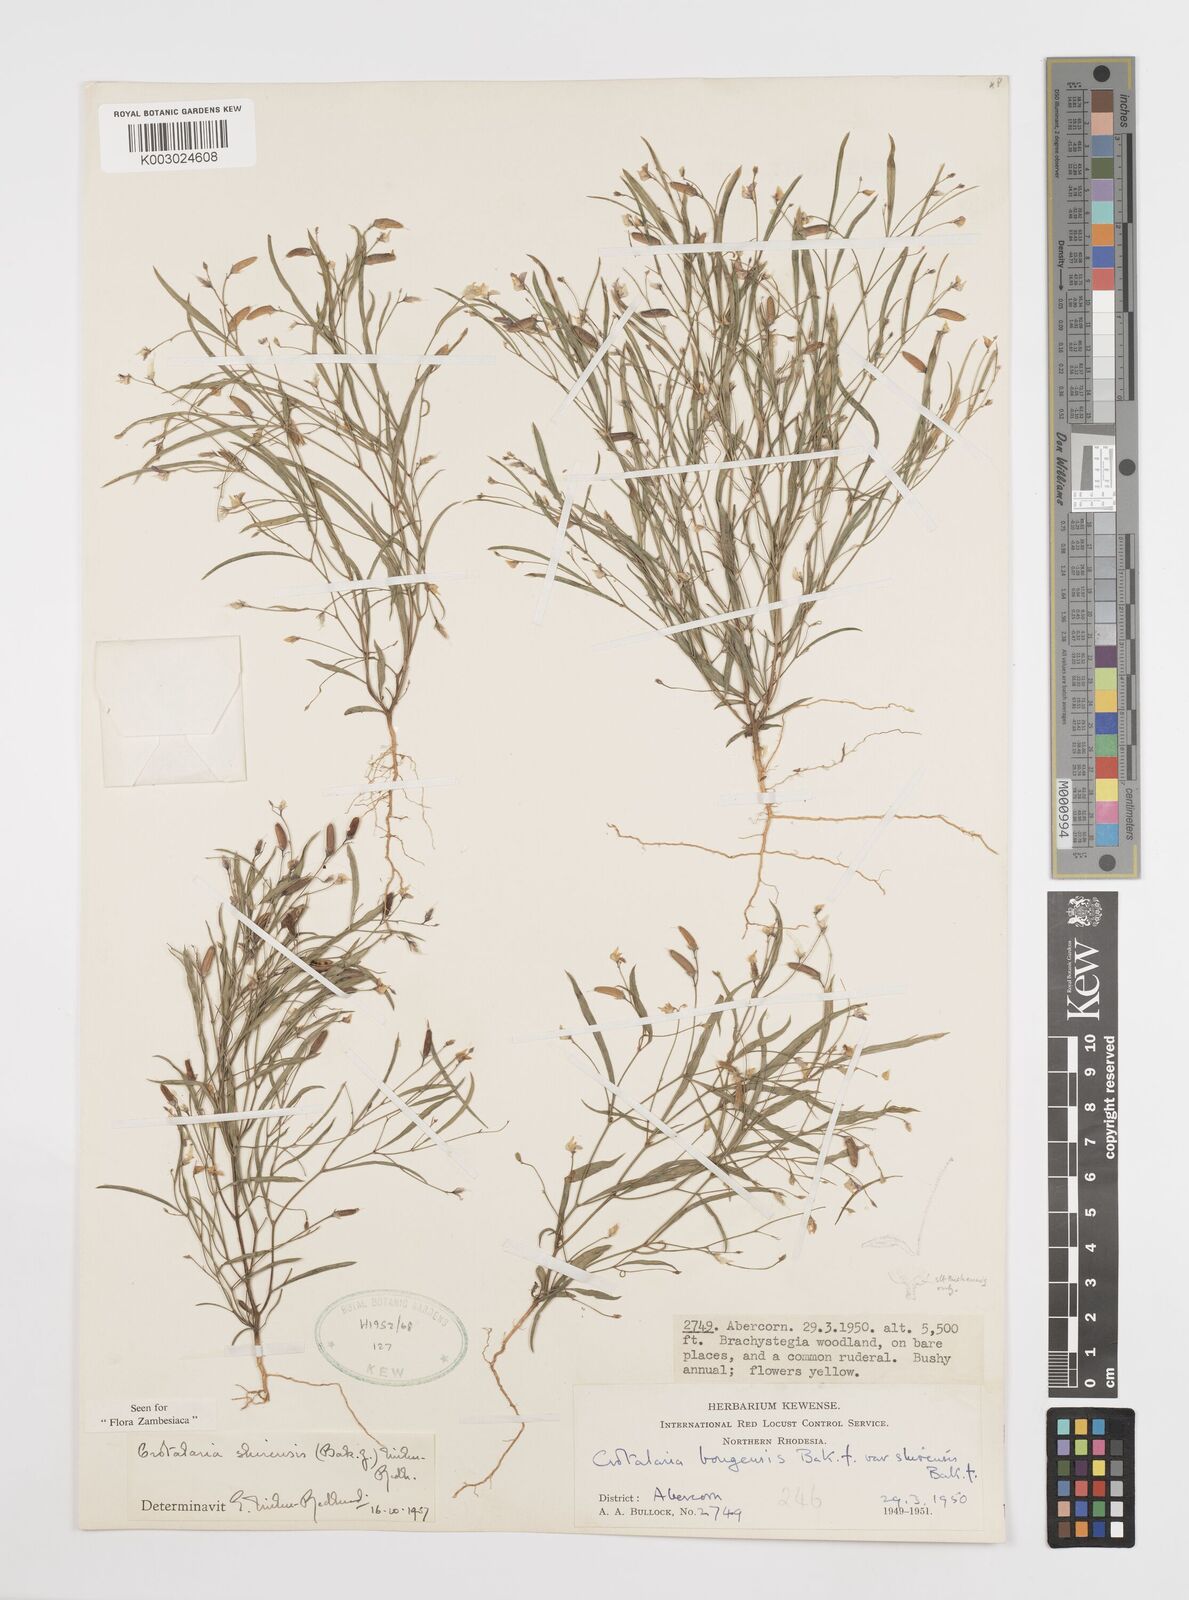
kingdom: Plantae
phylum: Tracheophyta
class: Magnoliopsida
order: Fabales
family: Fabaceae
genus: Crotalaria
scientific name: Crotalaria shirensis
